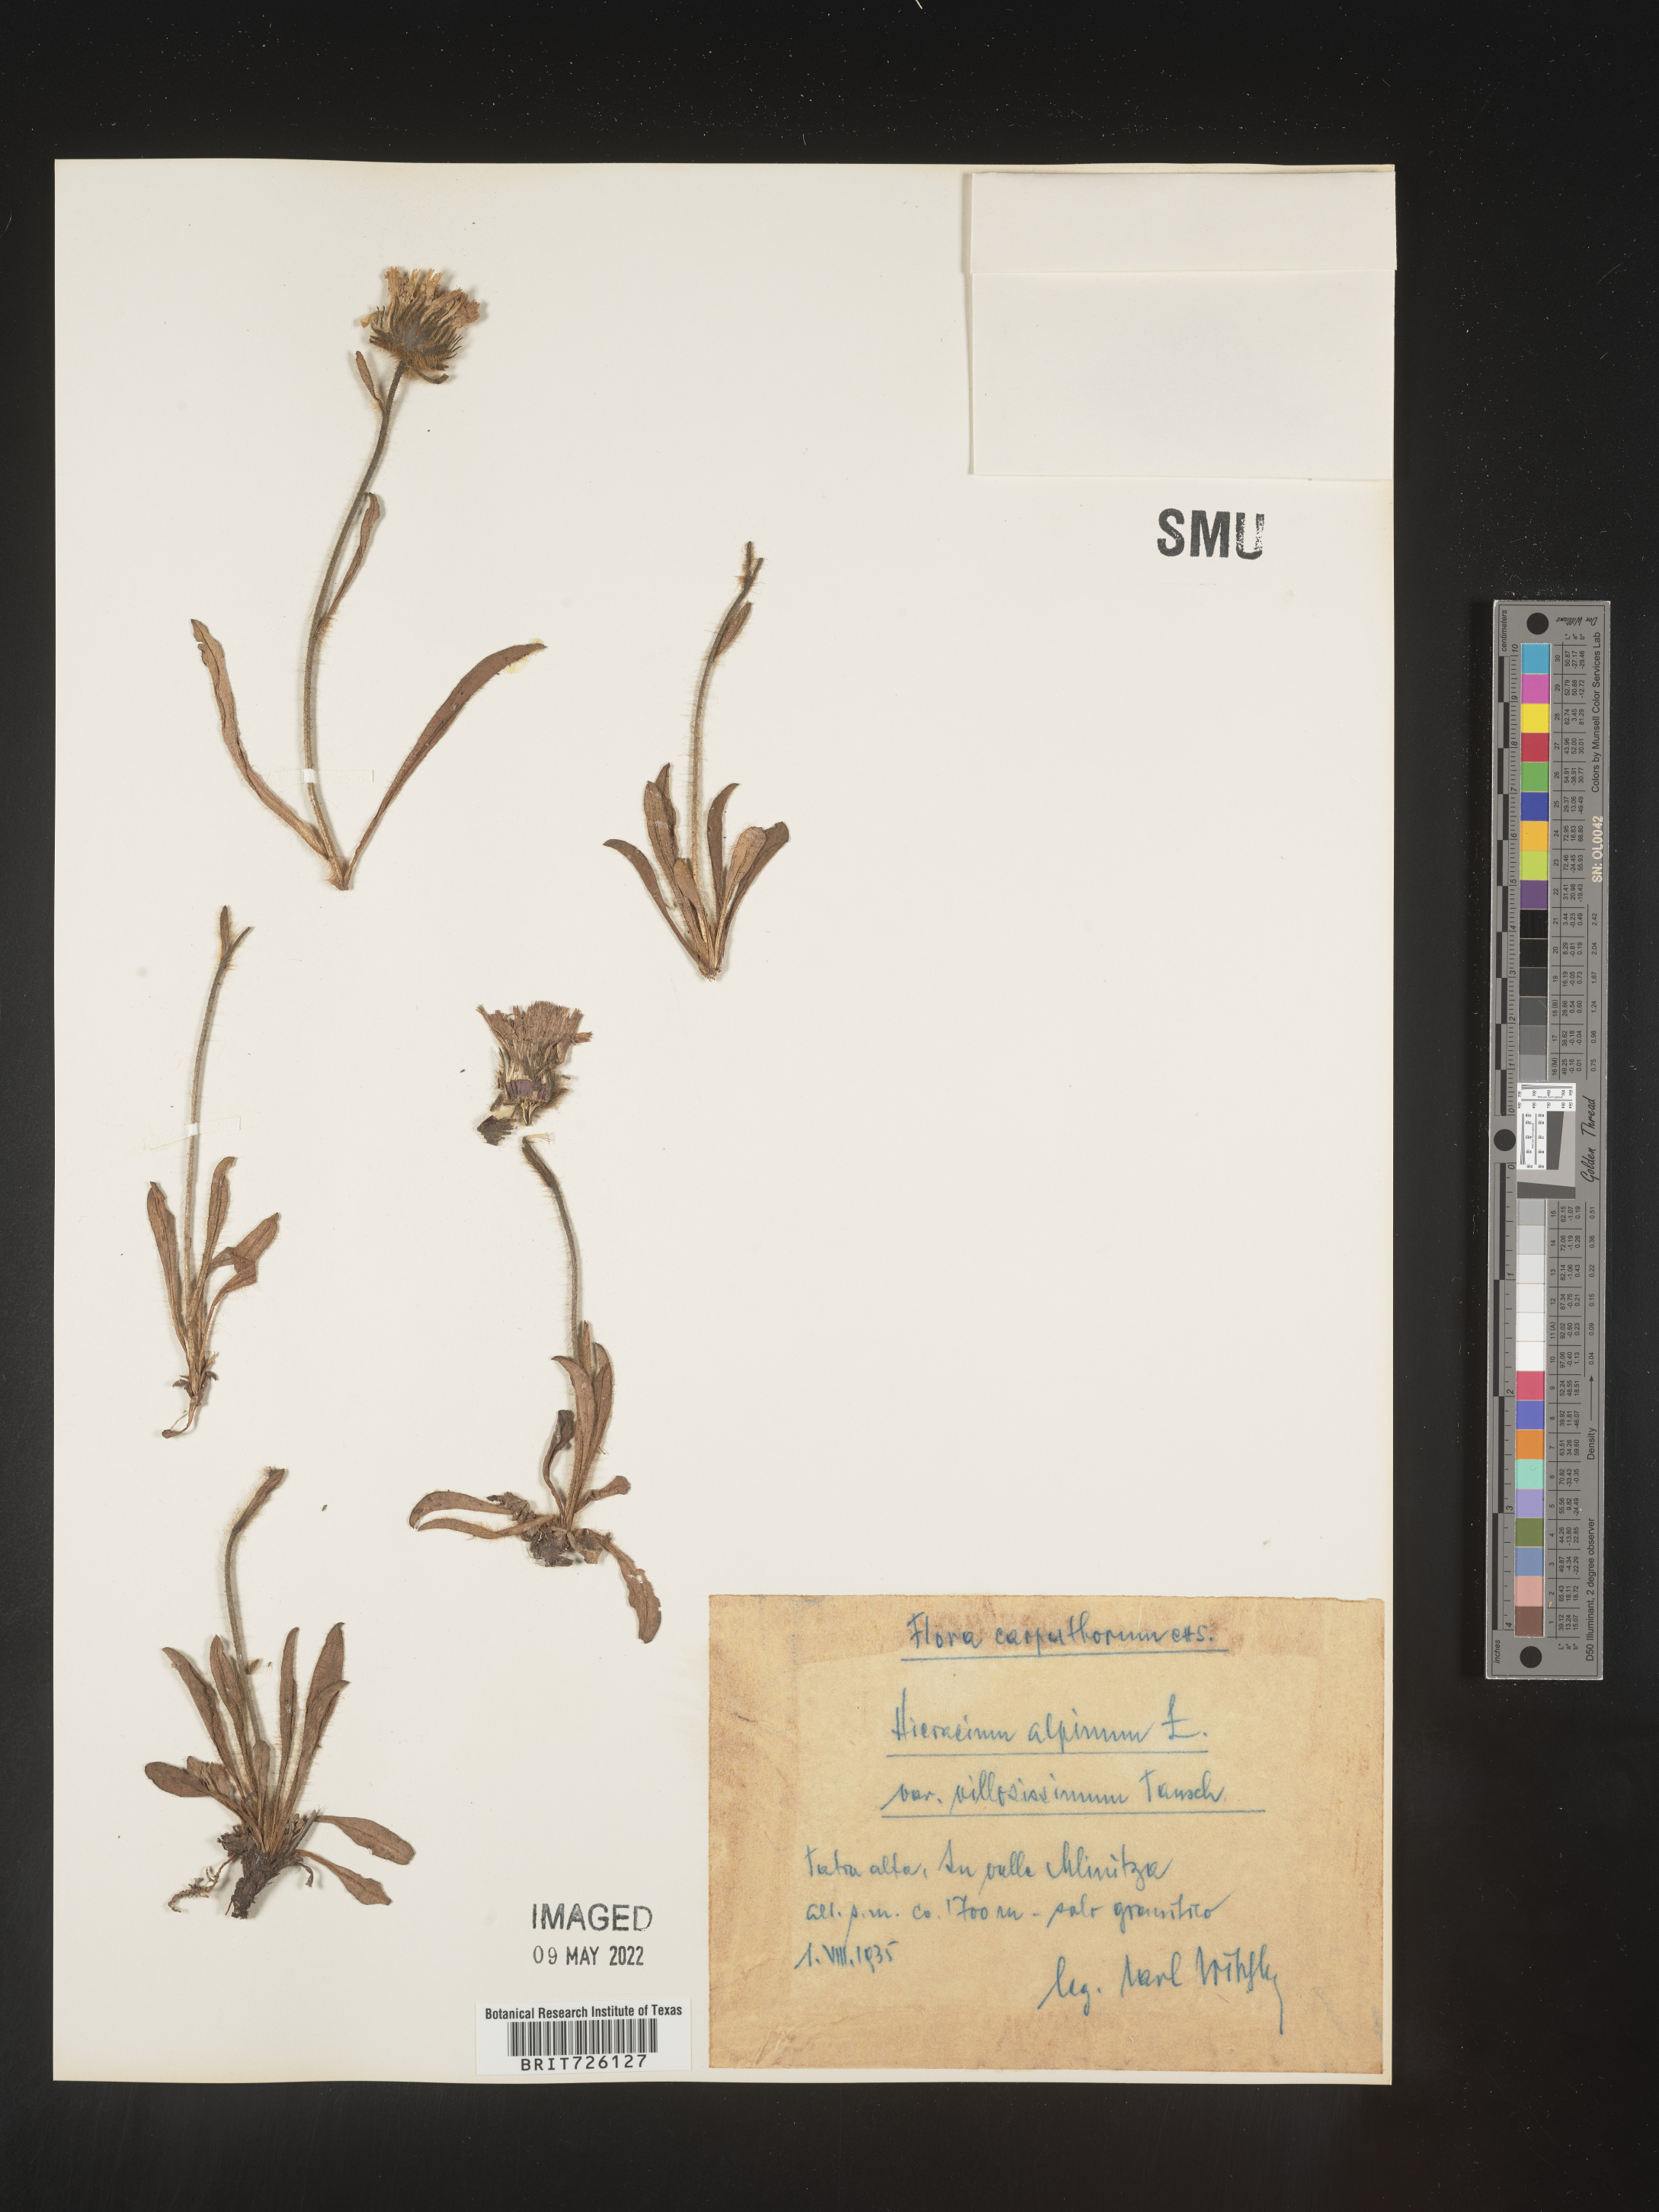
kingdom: Plantae
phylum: Tracheophyta
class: Magnoliopsida
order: Asterales
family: Asteraceae
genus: Hieracium
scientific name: Hieracium
